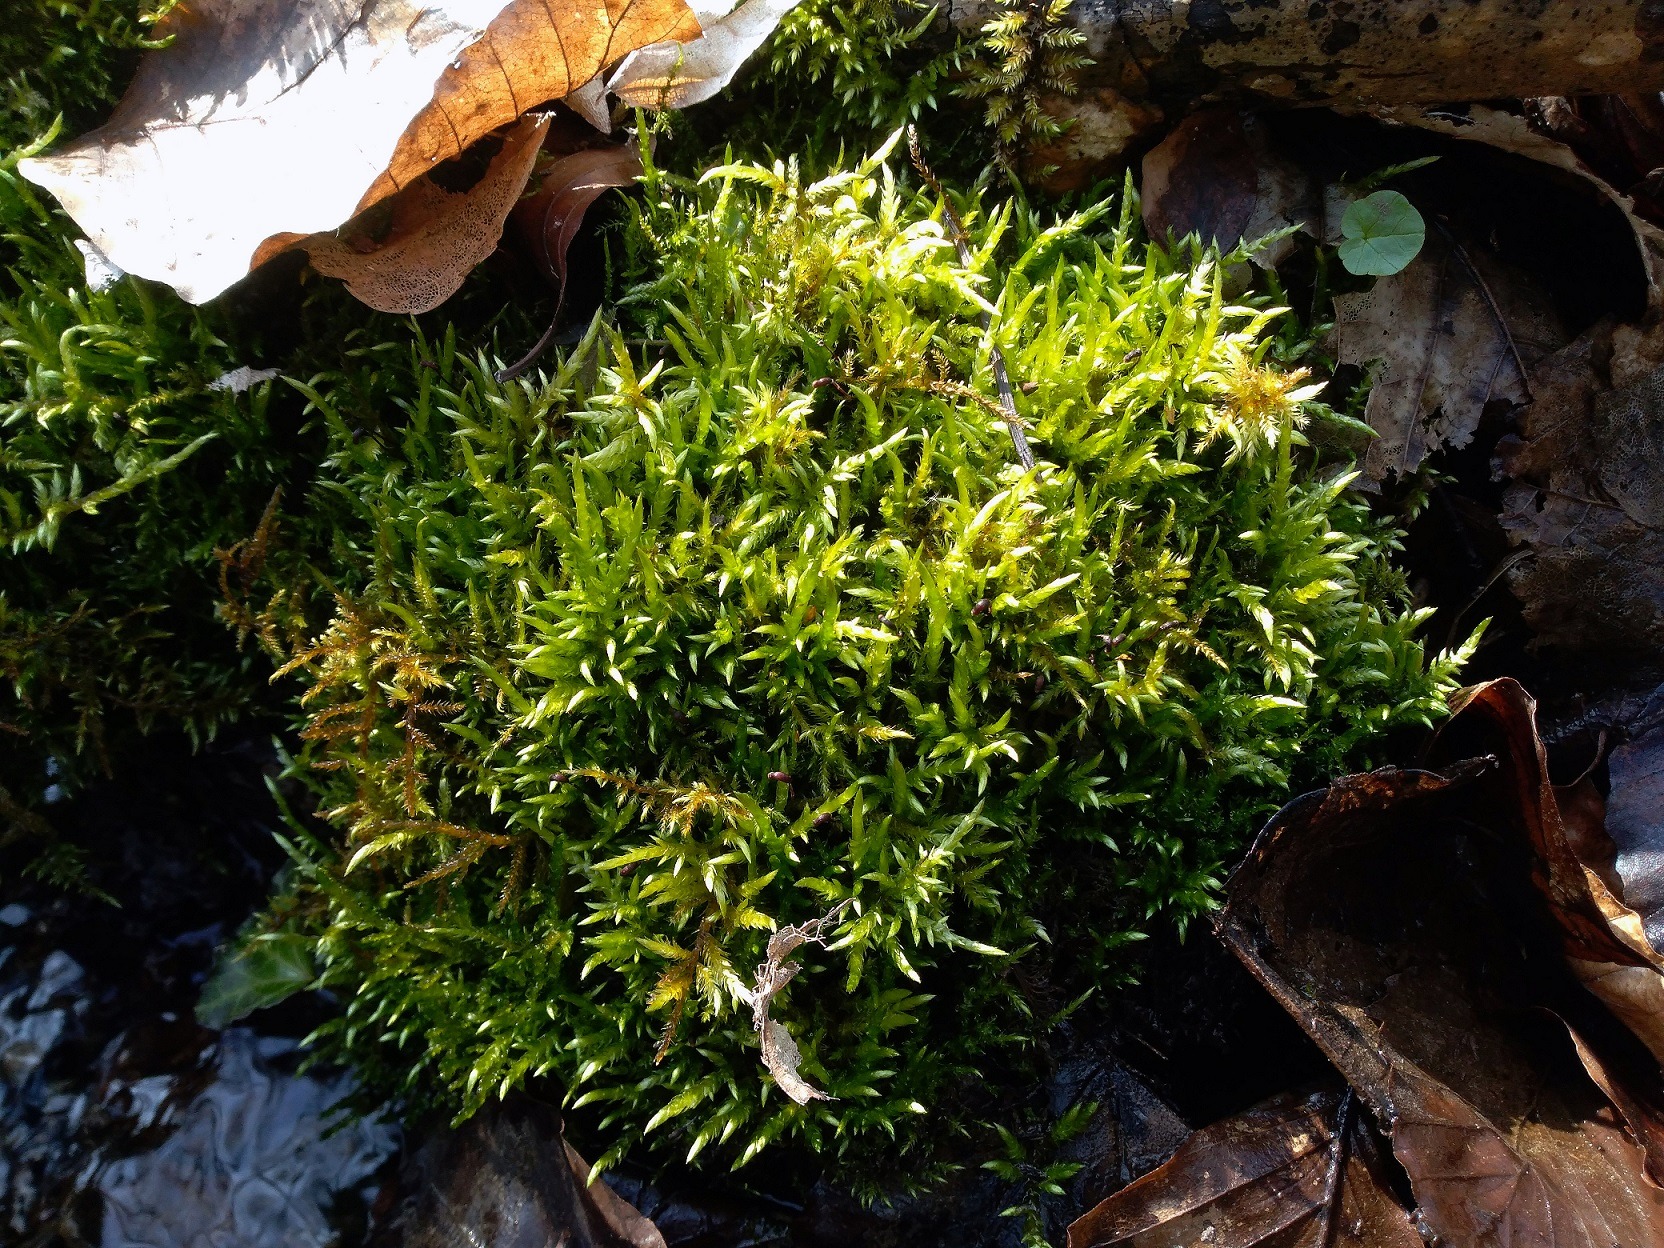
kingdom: Plantae
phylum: Bryophyta
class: Bryopsida
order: Hypnales
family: Brachytheciaceae
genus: Brachythecium
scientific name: Brachythecium rivulare
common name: Væld-kortkapsel
